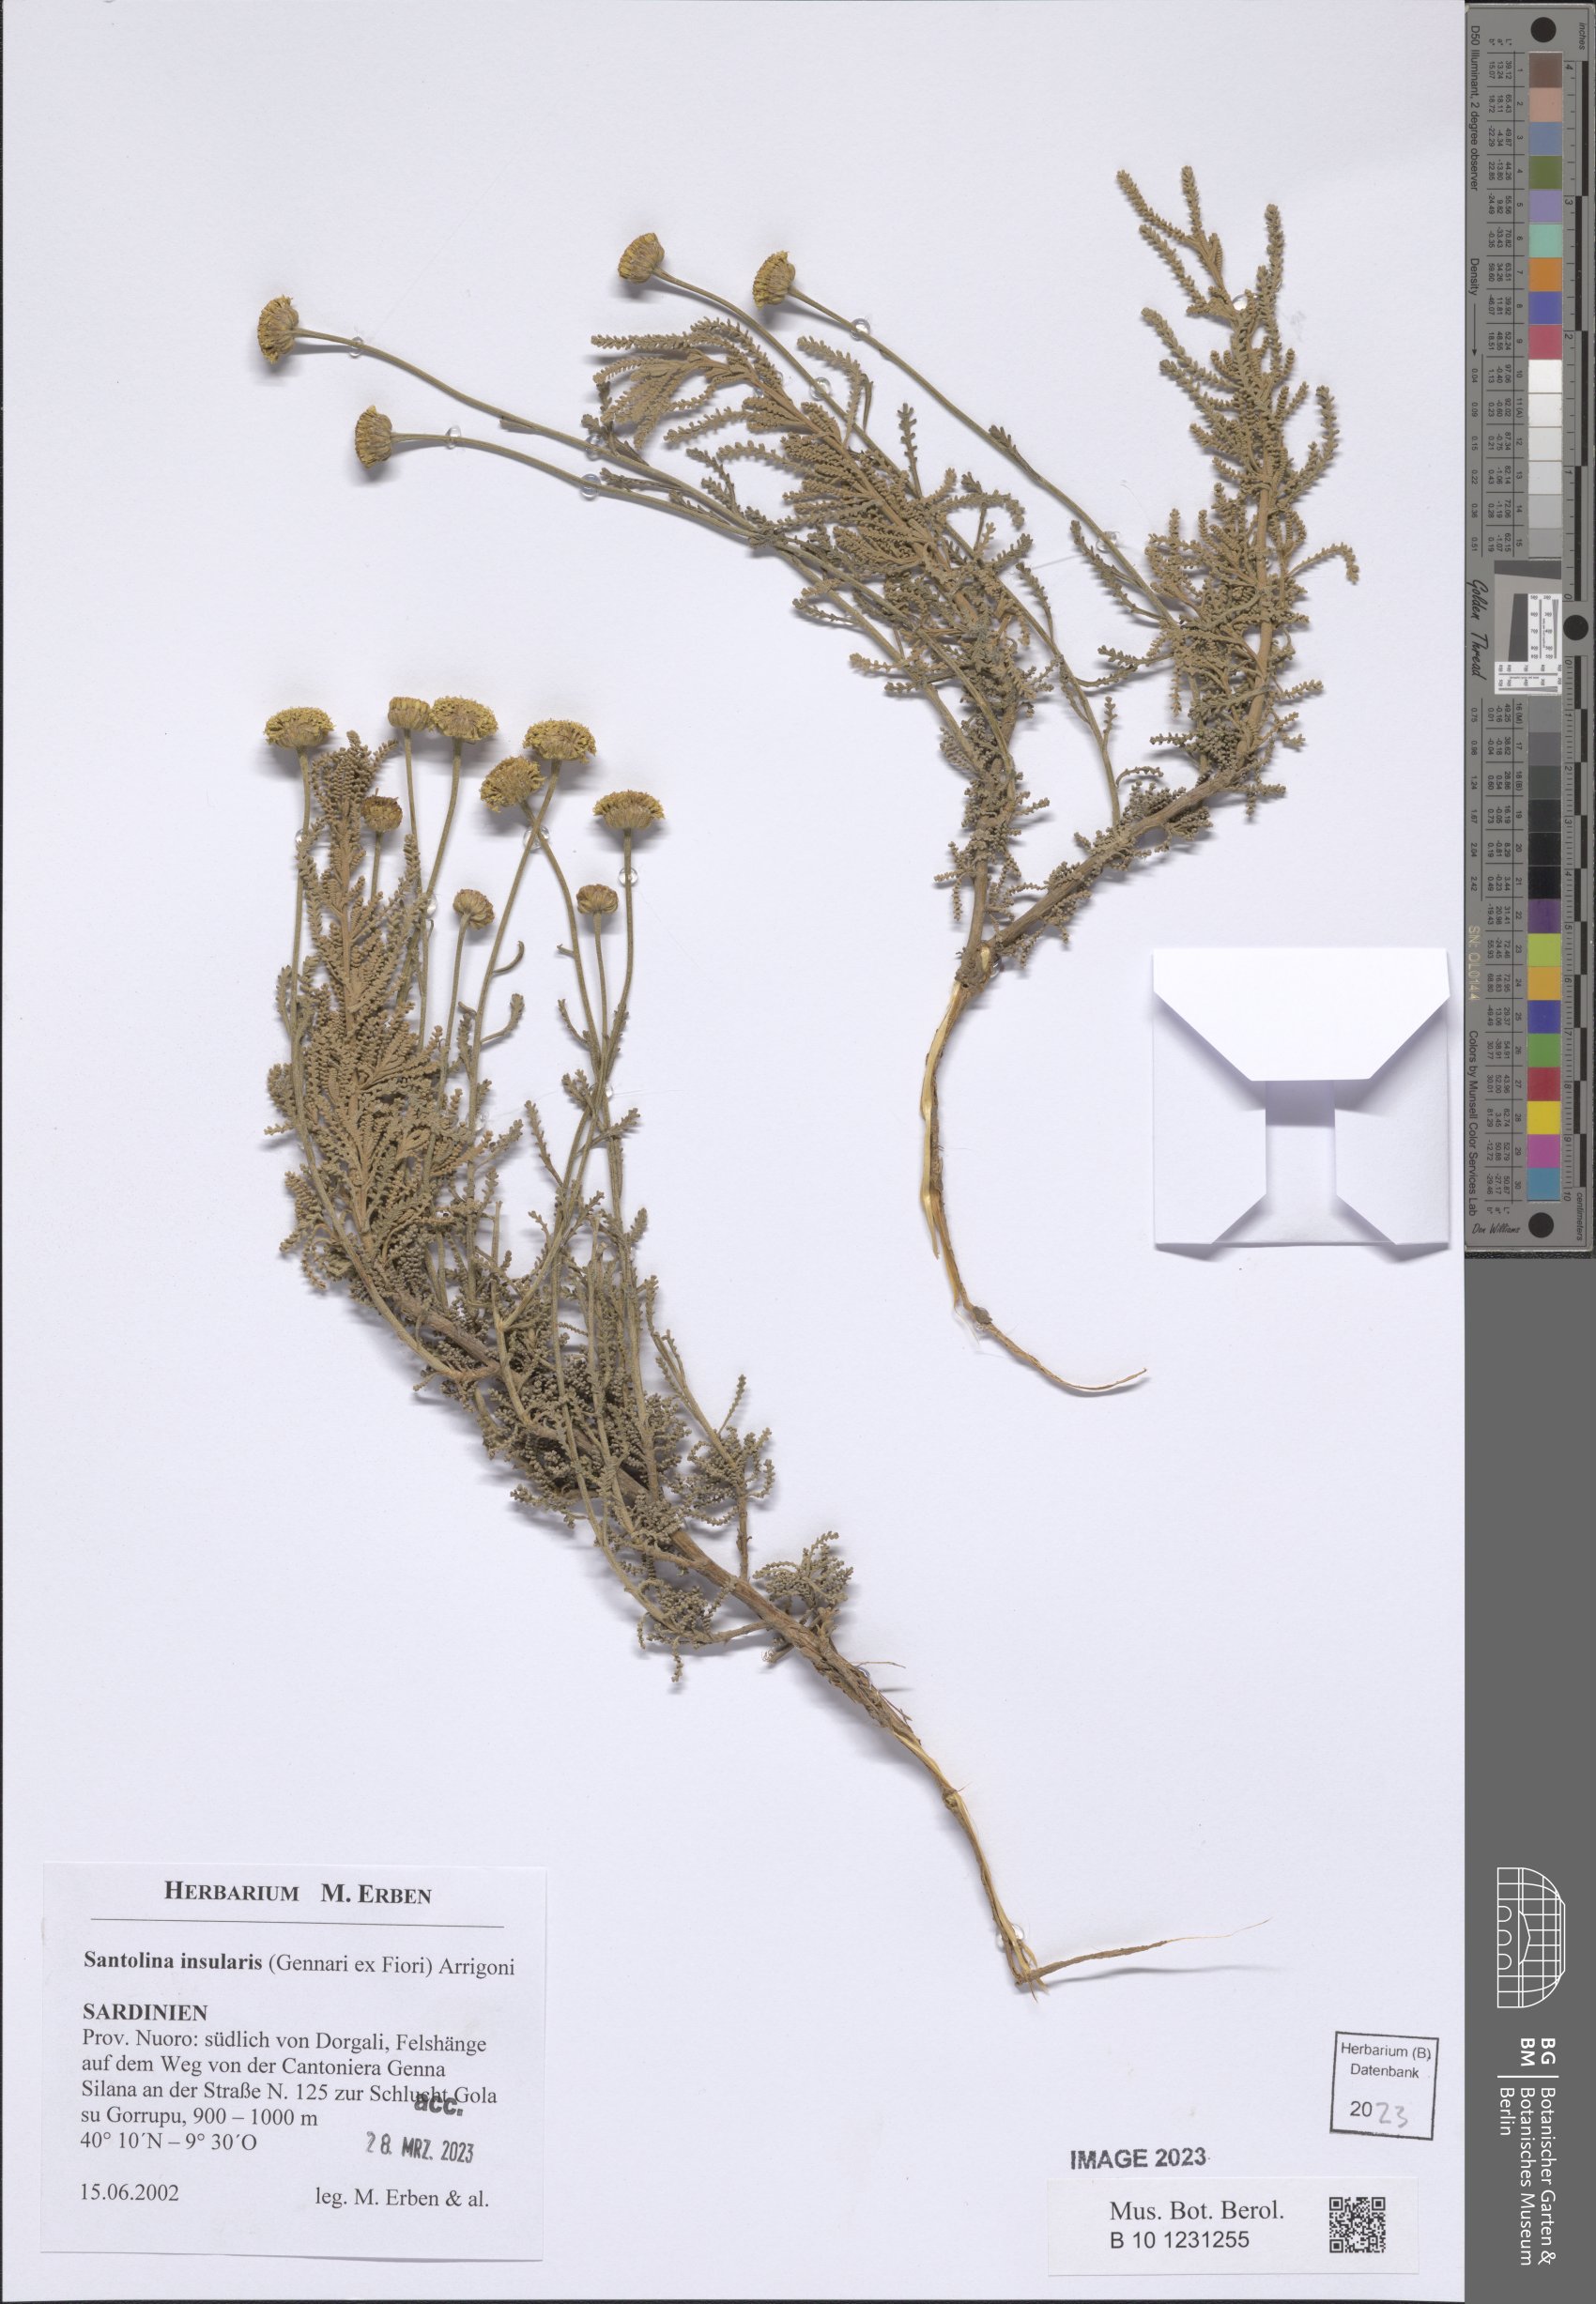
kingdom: Plantae
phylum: Tracheophyta
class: Magnoliopsida
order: Asterales
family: Asteraceae
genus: Santolina
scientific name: Santolina insularis
